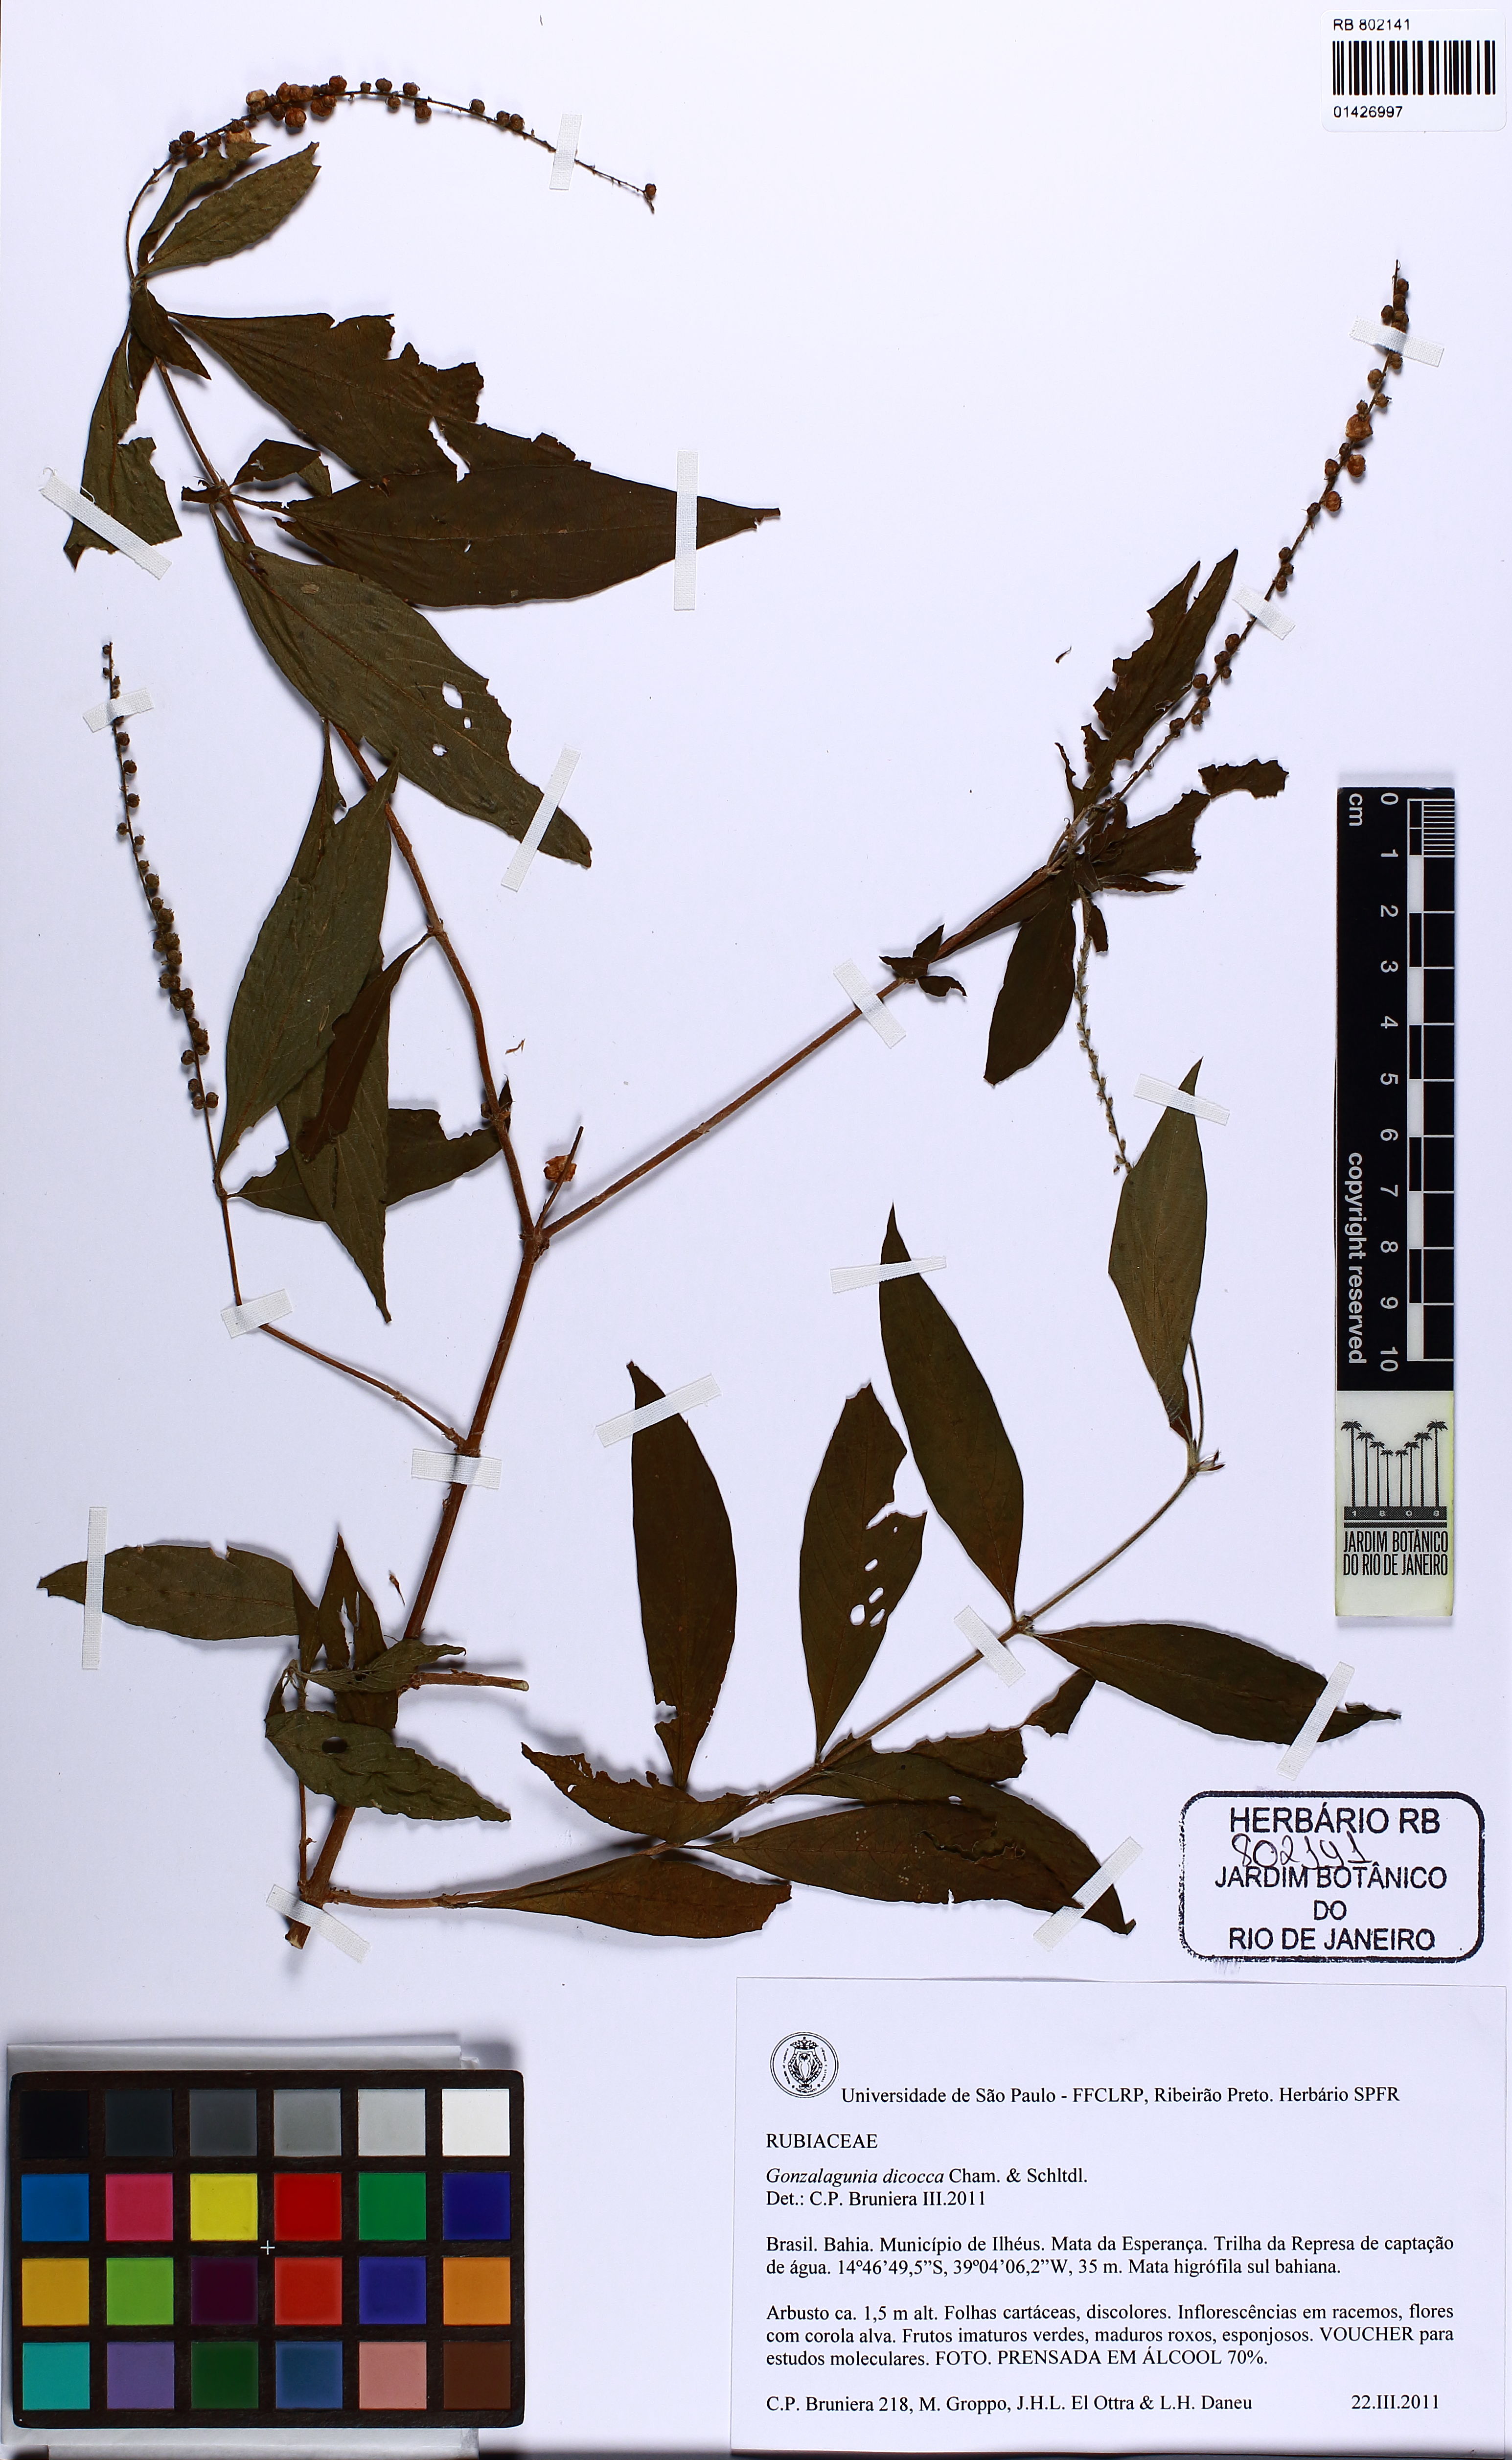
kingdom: Plantae
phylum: Tracheophyta
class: Magnoliopsida
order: Gentianales
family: Rubiaceae
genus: Gonzalagunia
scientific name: Gonzalagunia dicocca
